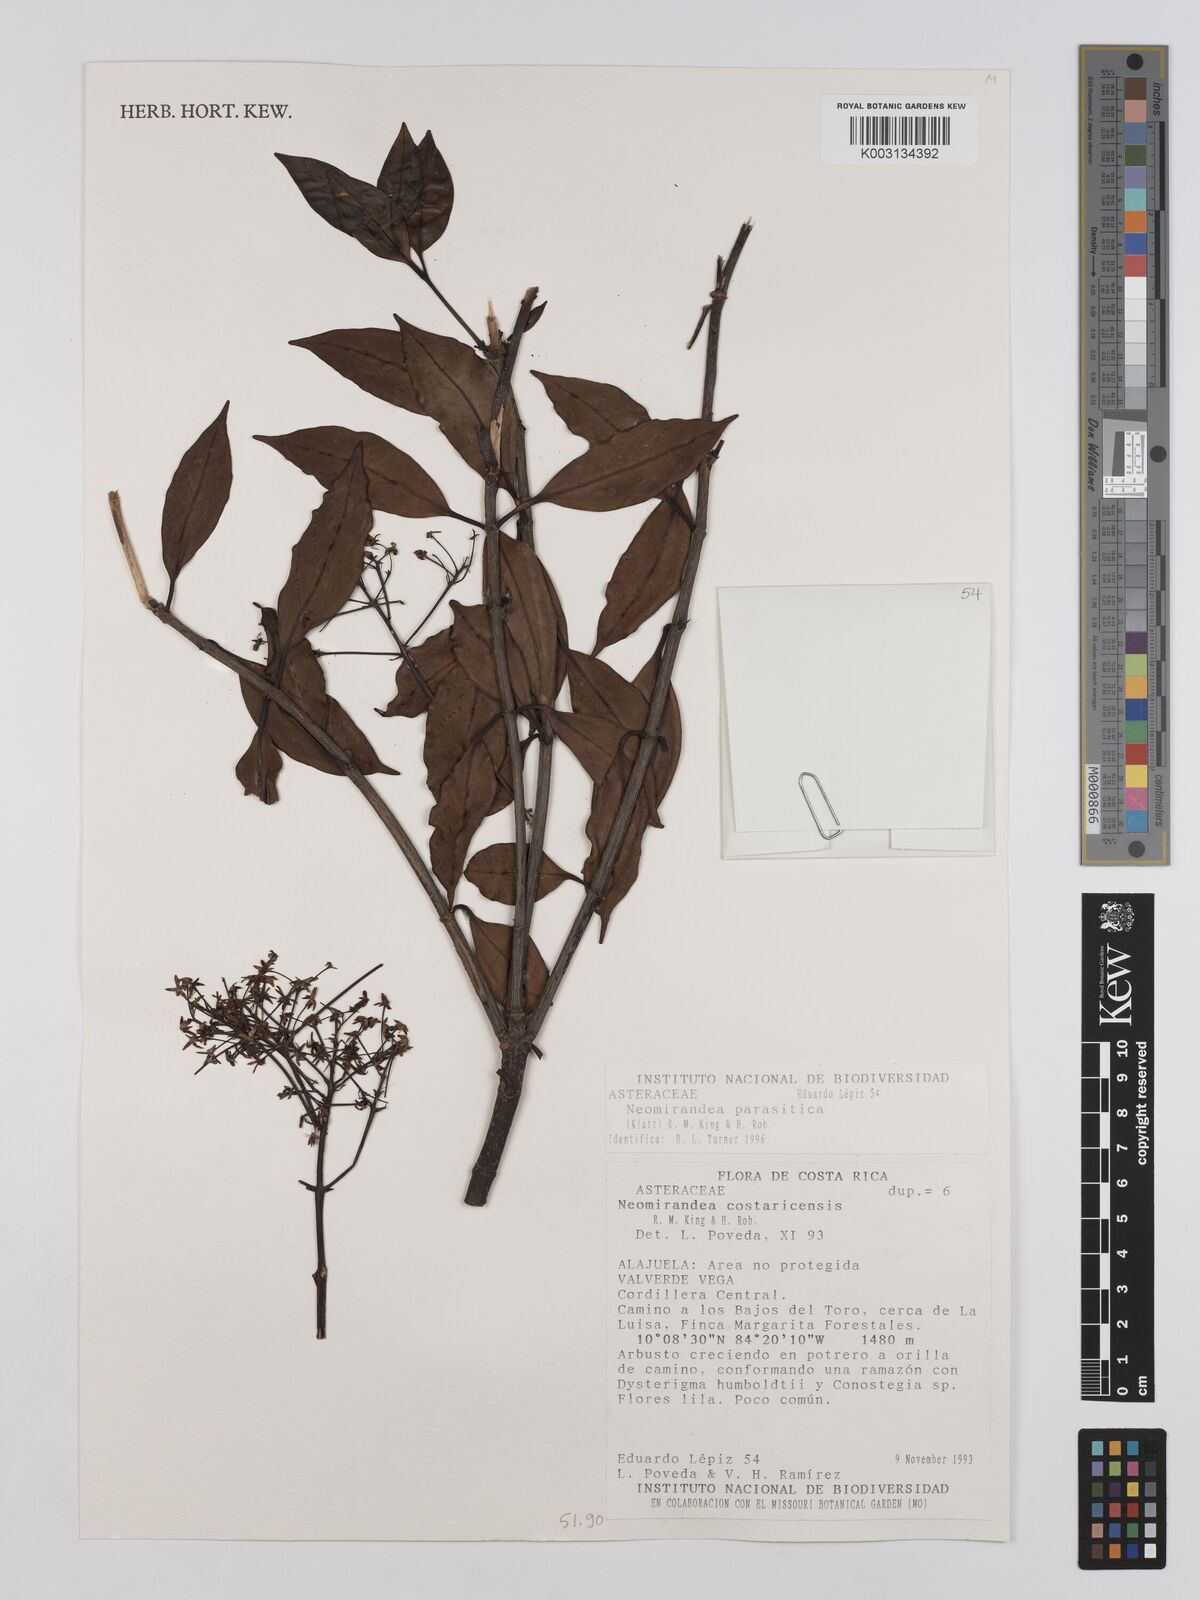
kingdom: Plantae
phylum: Tracheophyta
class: Magnoliopsida
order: Asterales
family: Asteraceae
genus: Neomirandea
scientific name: Neomirandea parasitica
